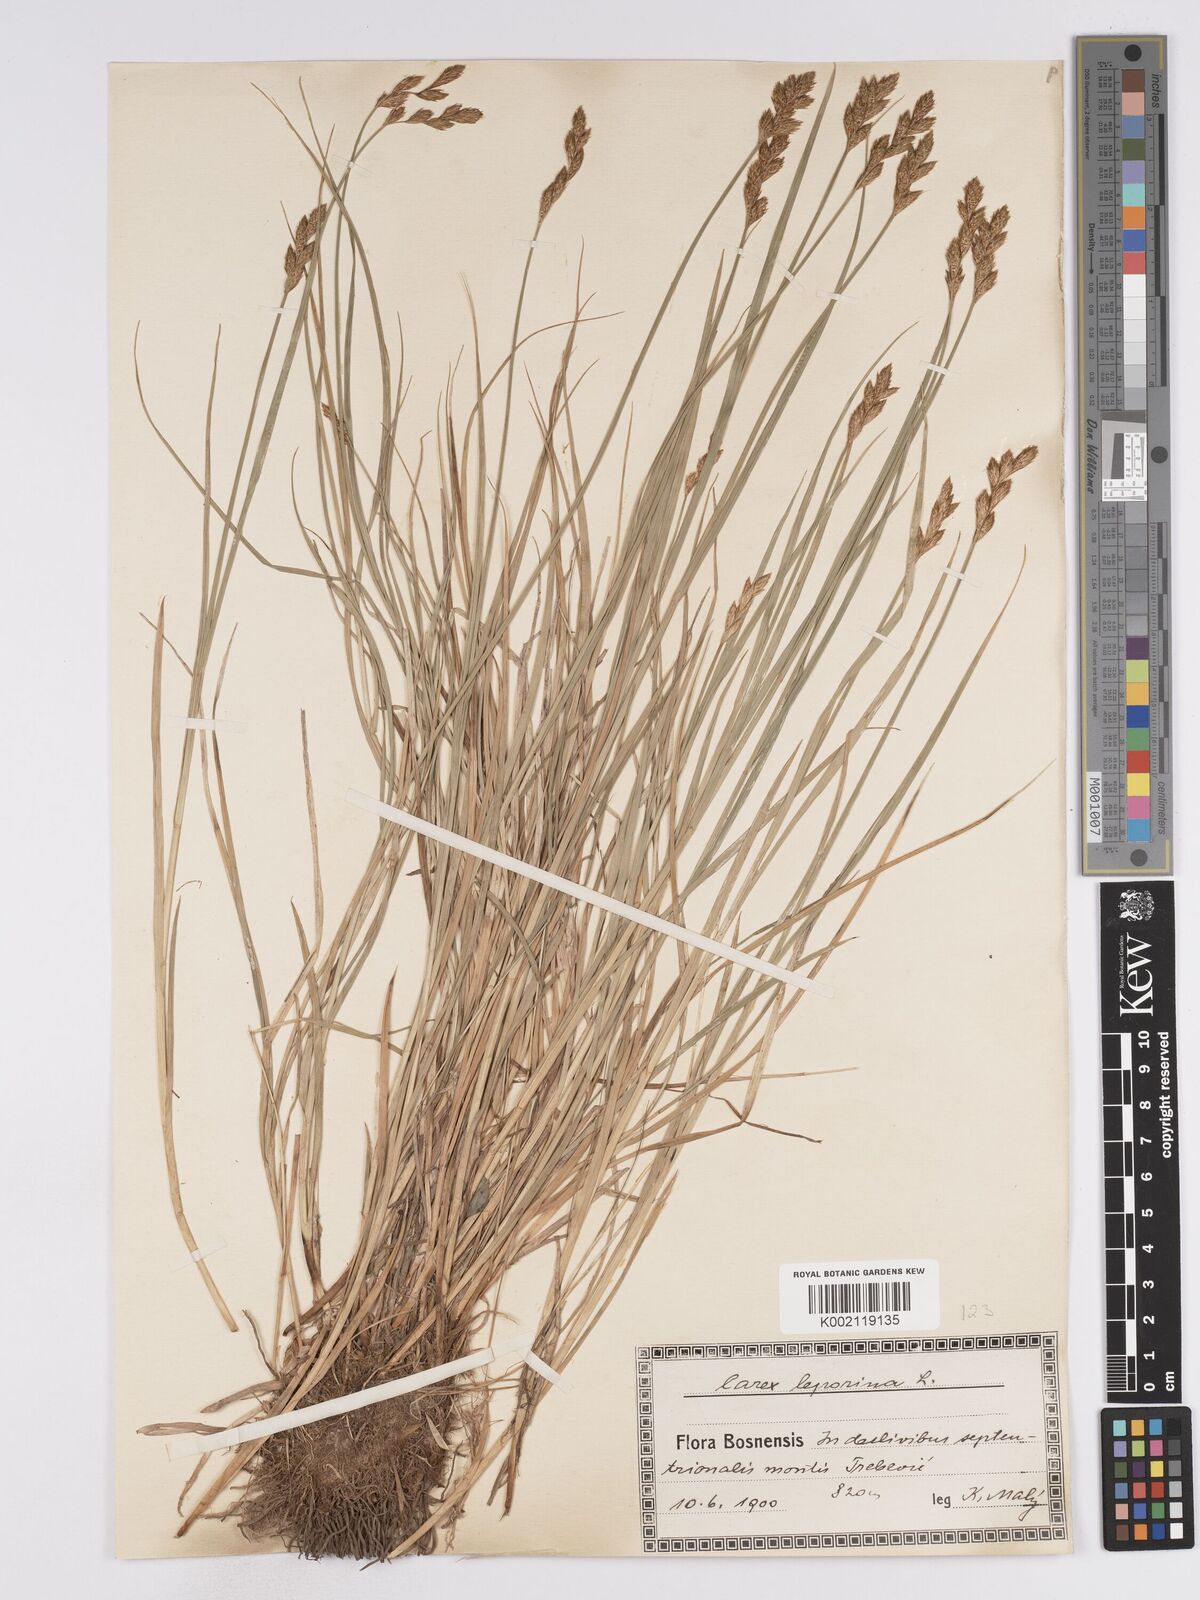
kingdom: Plantae
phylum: Tracheophyta
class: Liliopsida
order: Poales
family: Cyperaceae
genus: Carex
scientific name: Carex leporina
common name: Oval sedge
